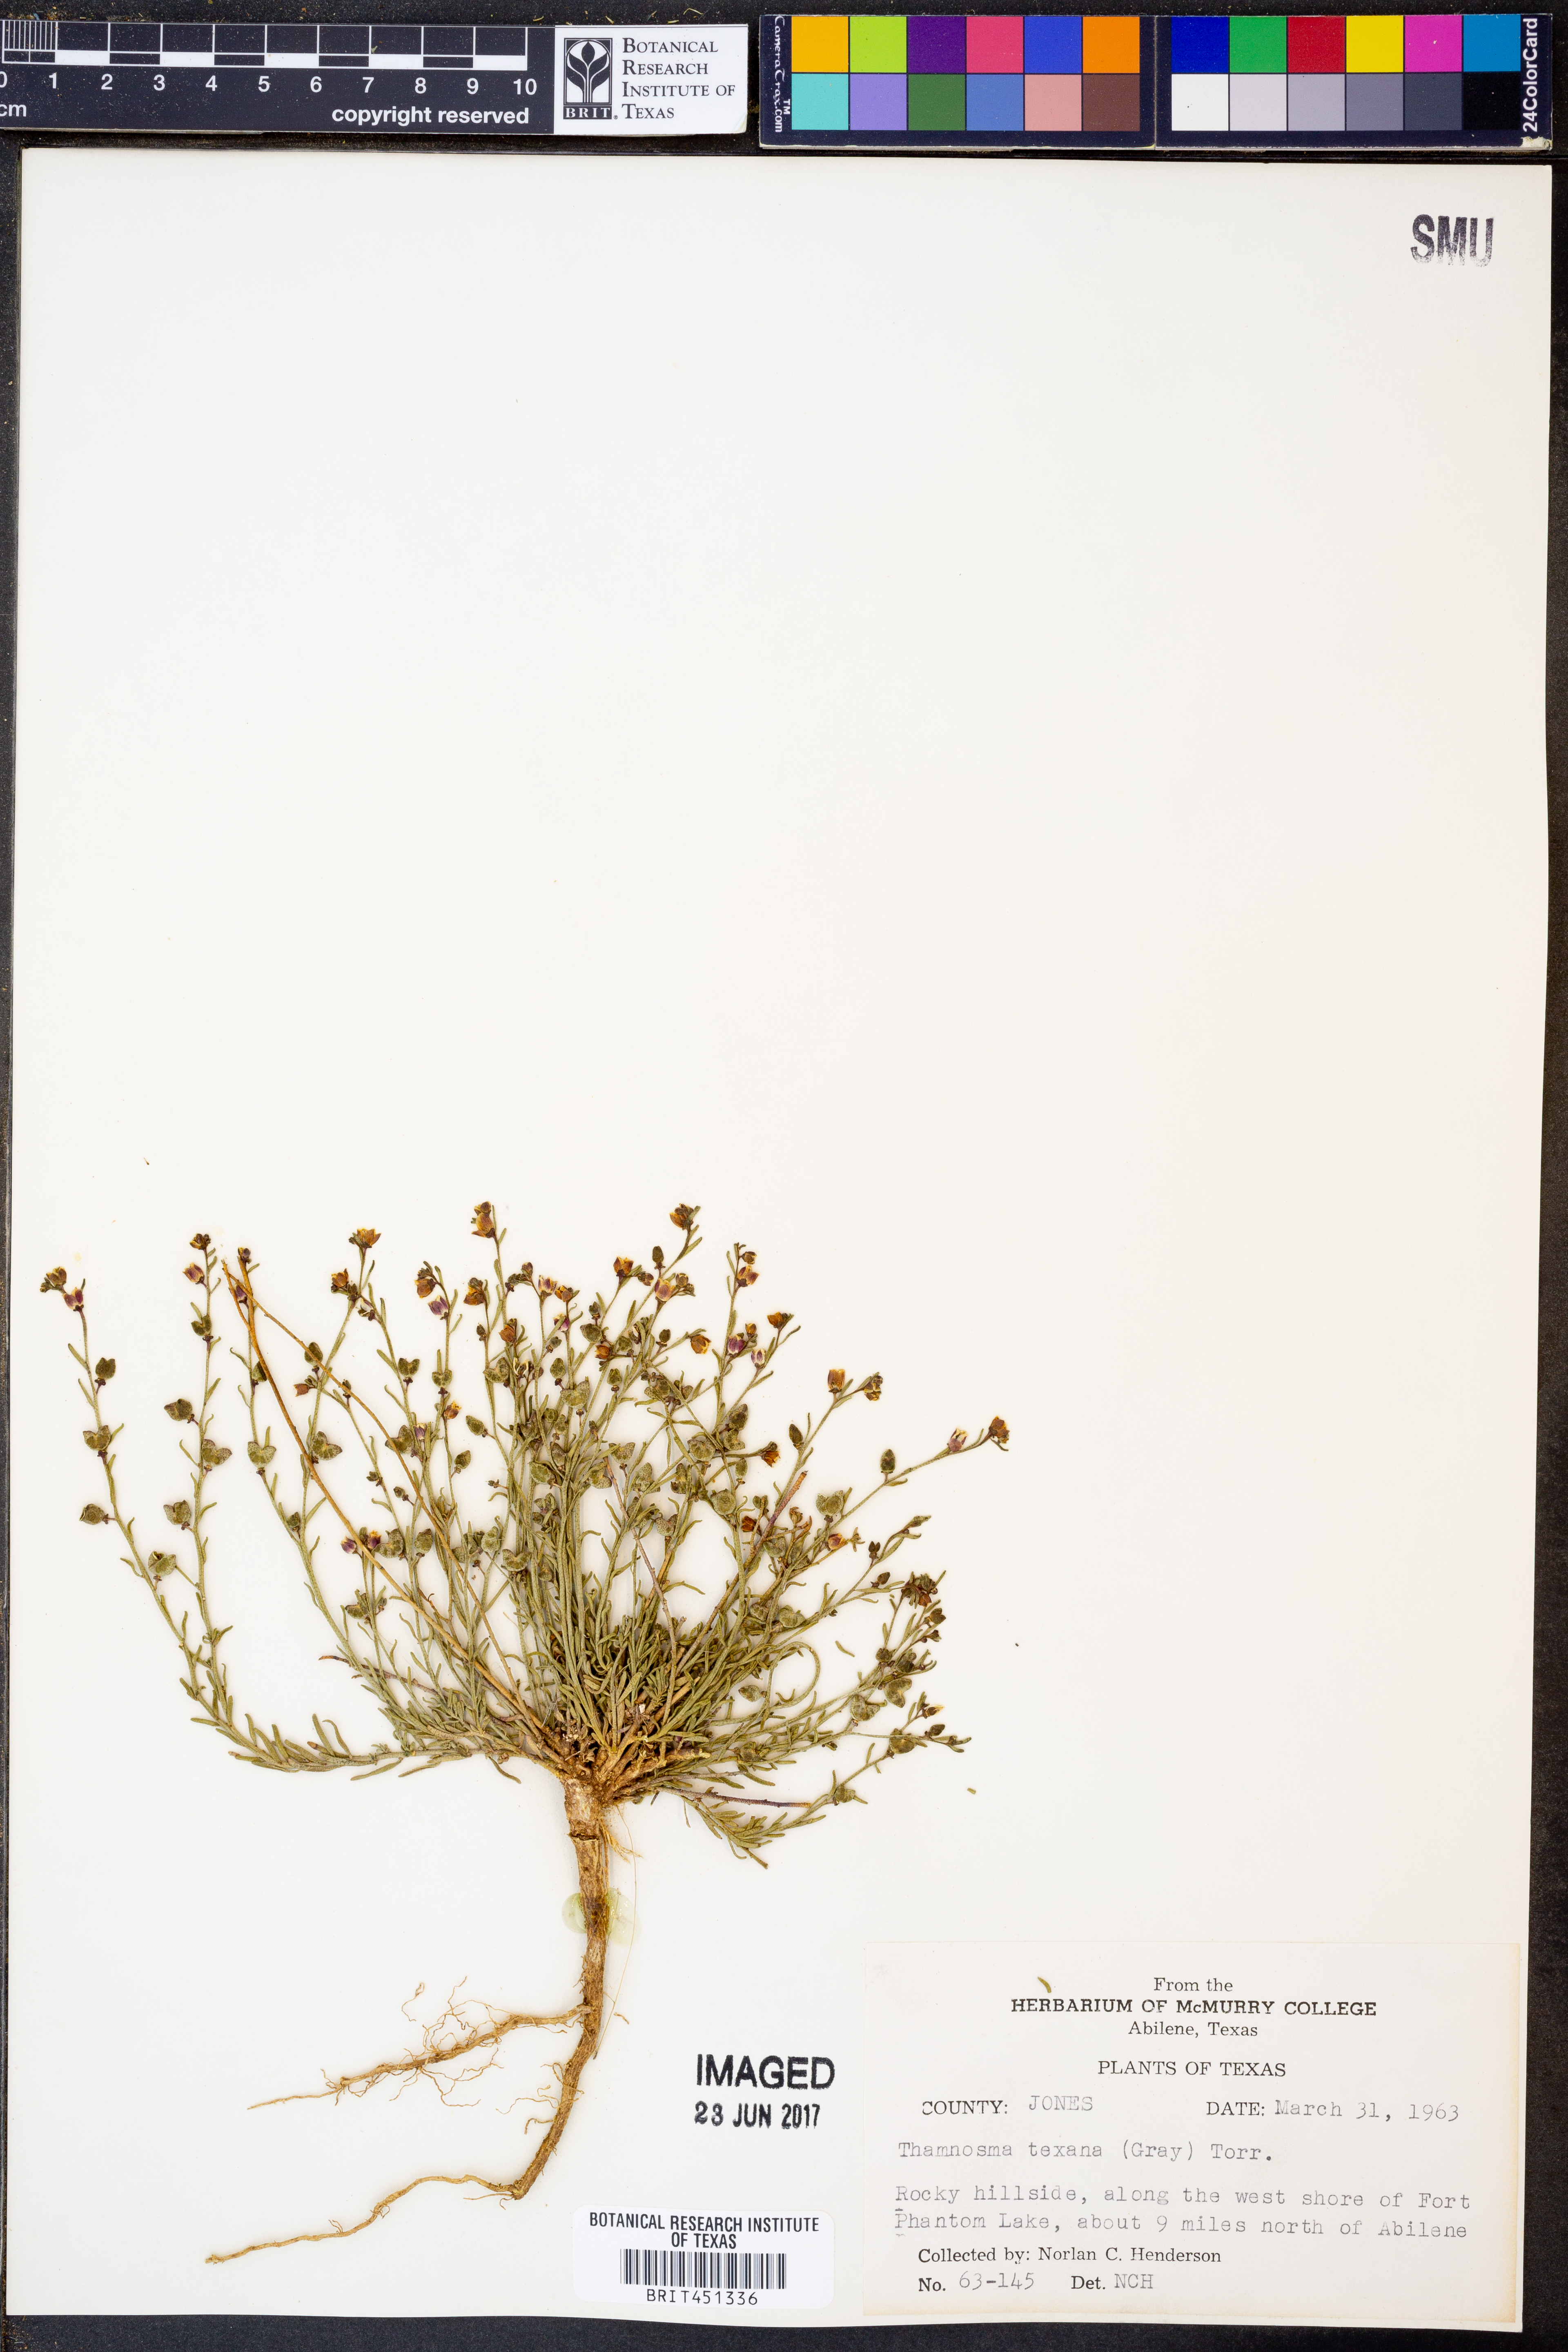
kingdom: Plantae
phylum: Tracheophyta
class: Magnoliopsida
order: Sapindales
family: Rutaceae
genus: Thamnosma
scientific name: Thamnosma texana
